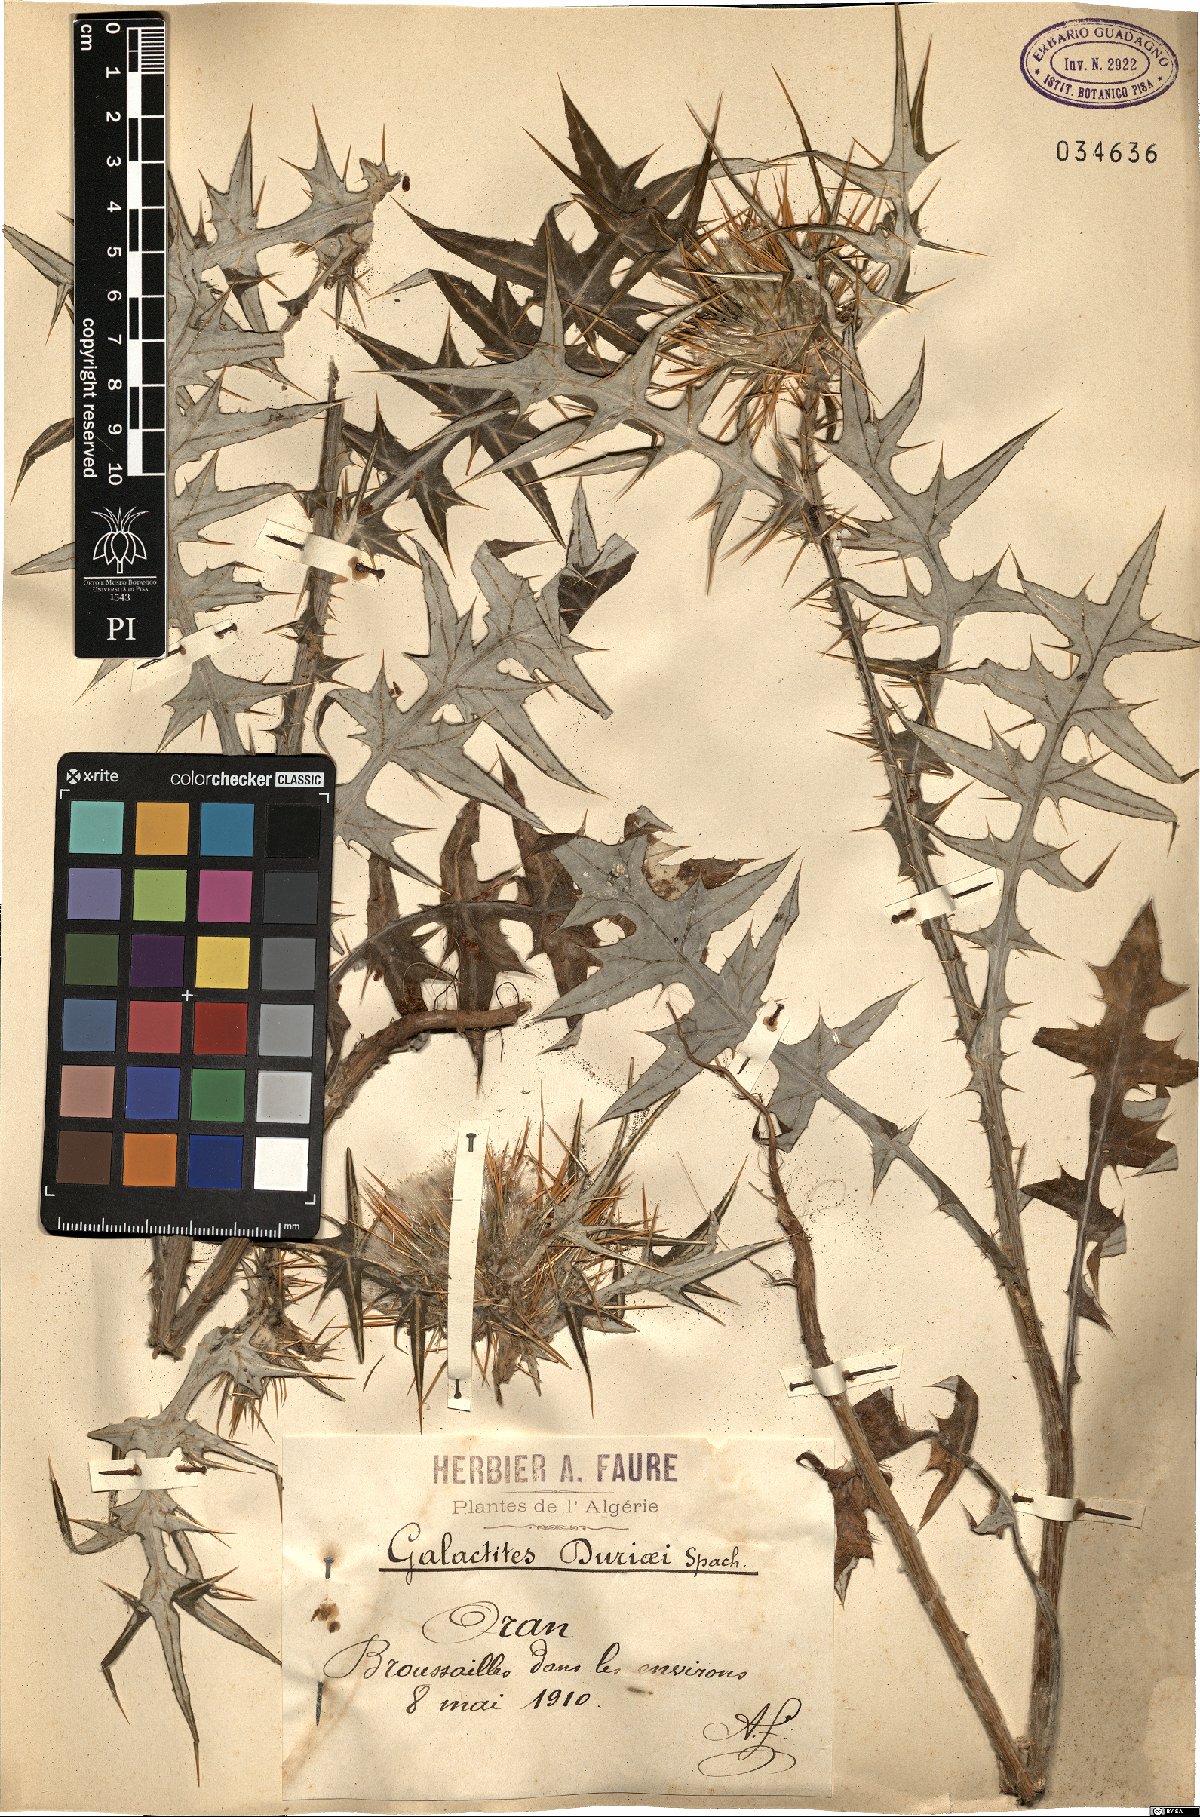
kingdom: Plantae
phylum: Tracheophyta
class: Magnoliopsida
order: Asterales
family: Asteraceae
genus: Galactites
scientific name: Galactites duriaei
